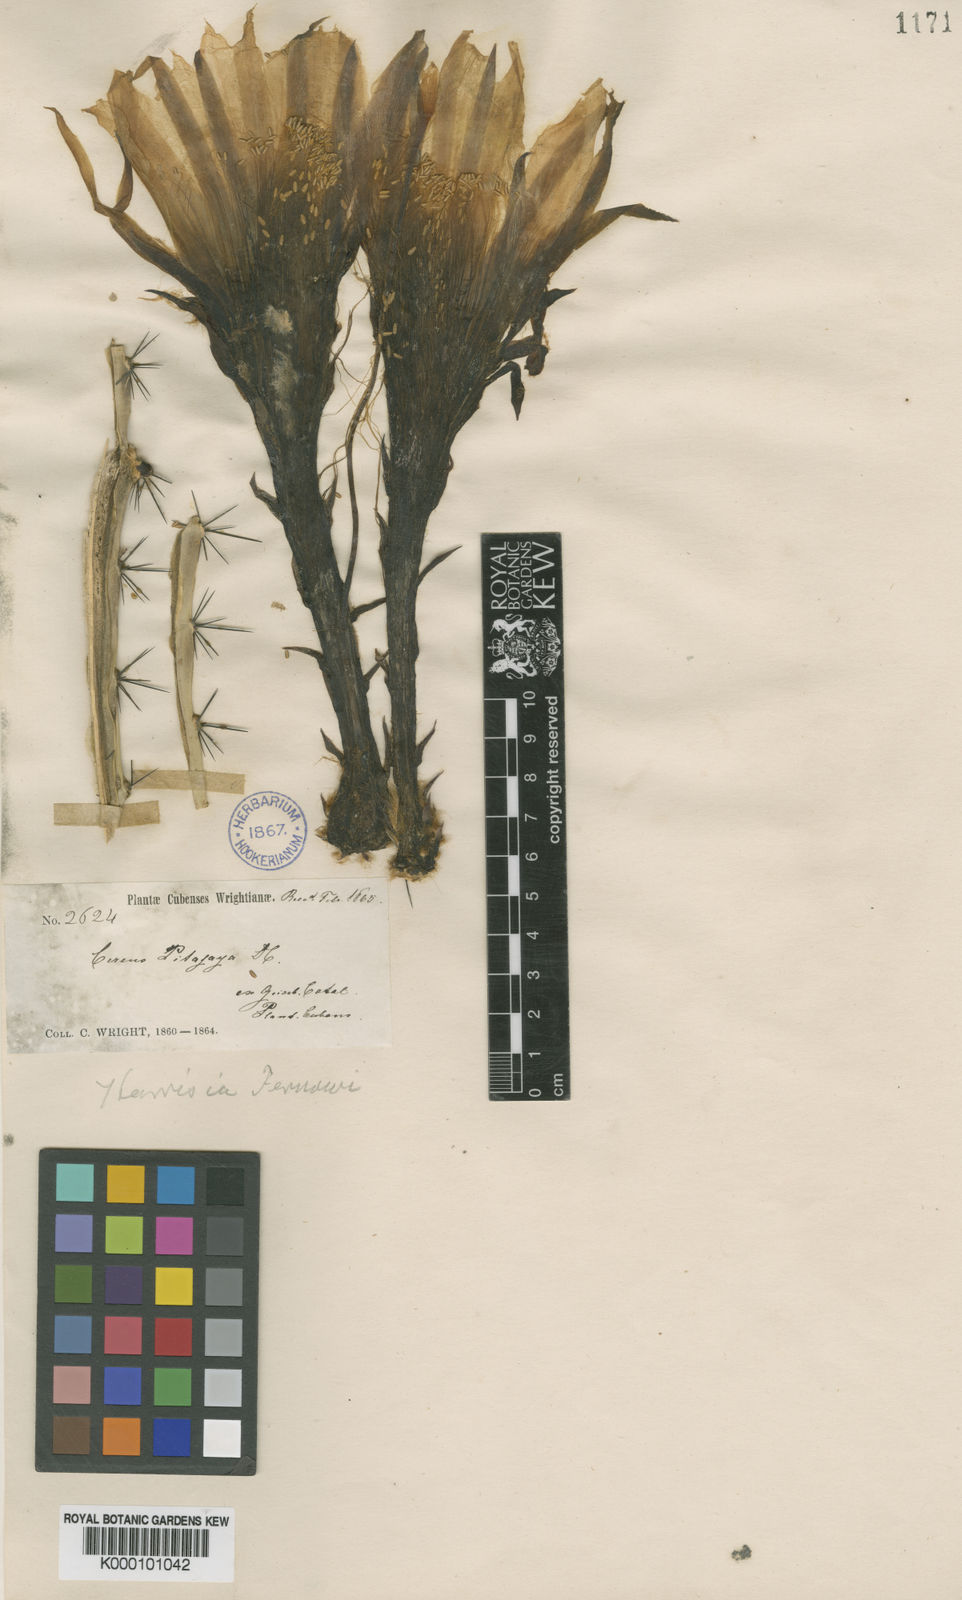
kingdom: Plantae
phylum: Tracheophyta
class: Magnoliopsida
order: Caryophyllales
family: Cactaceae
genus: Harrisia
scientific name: Harrisia fernowii
